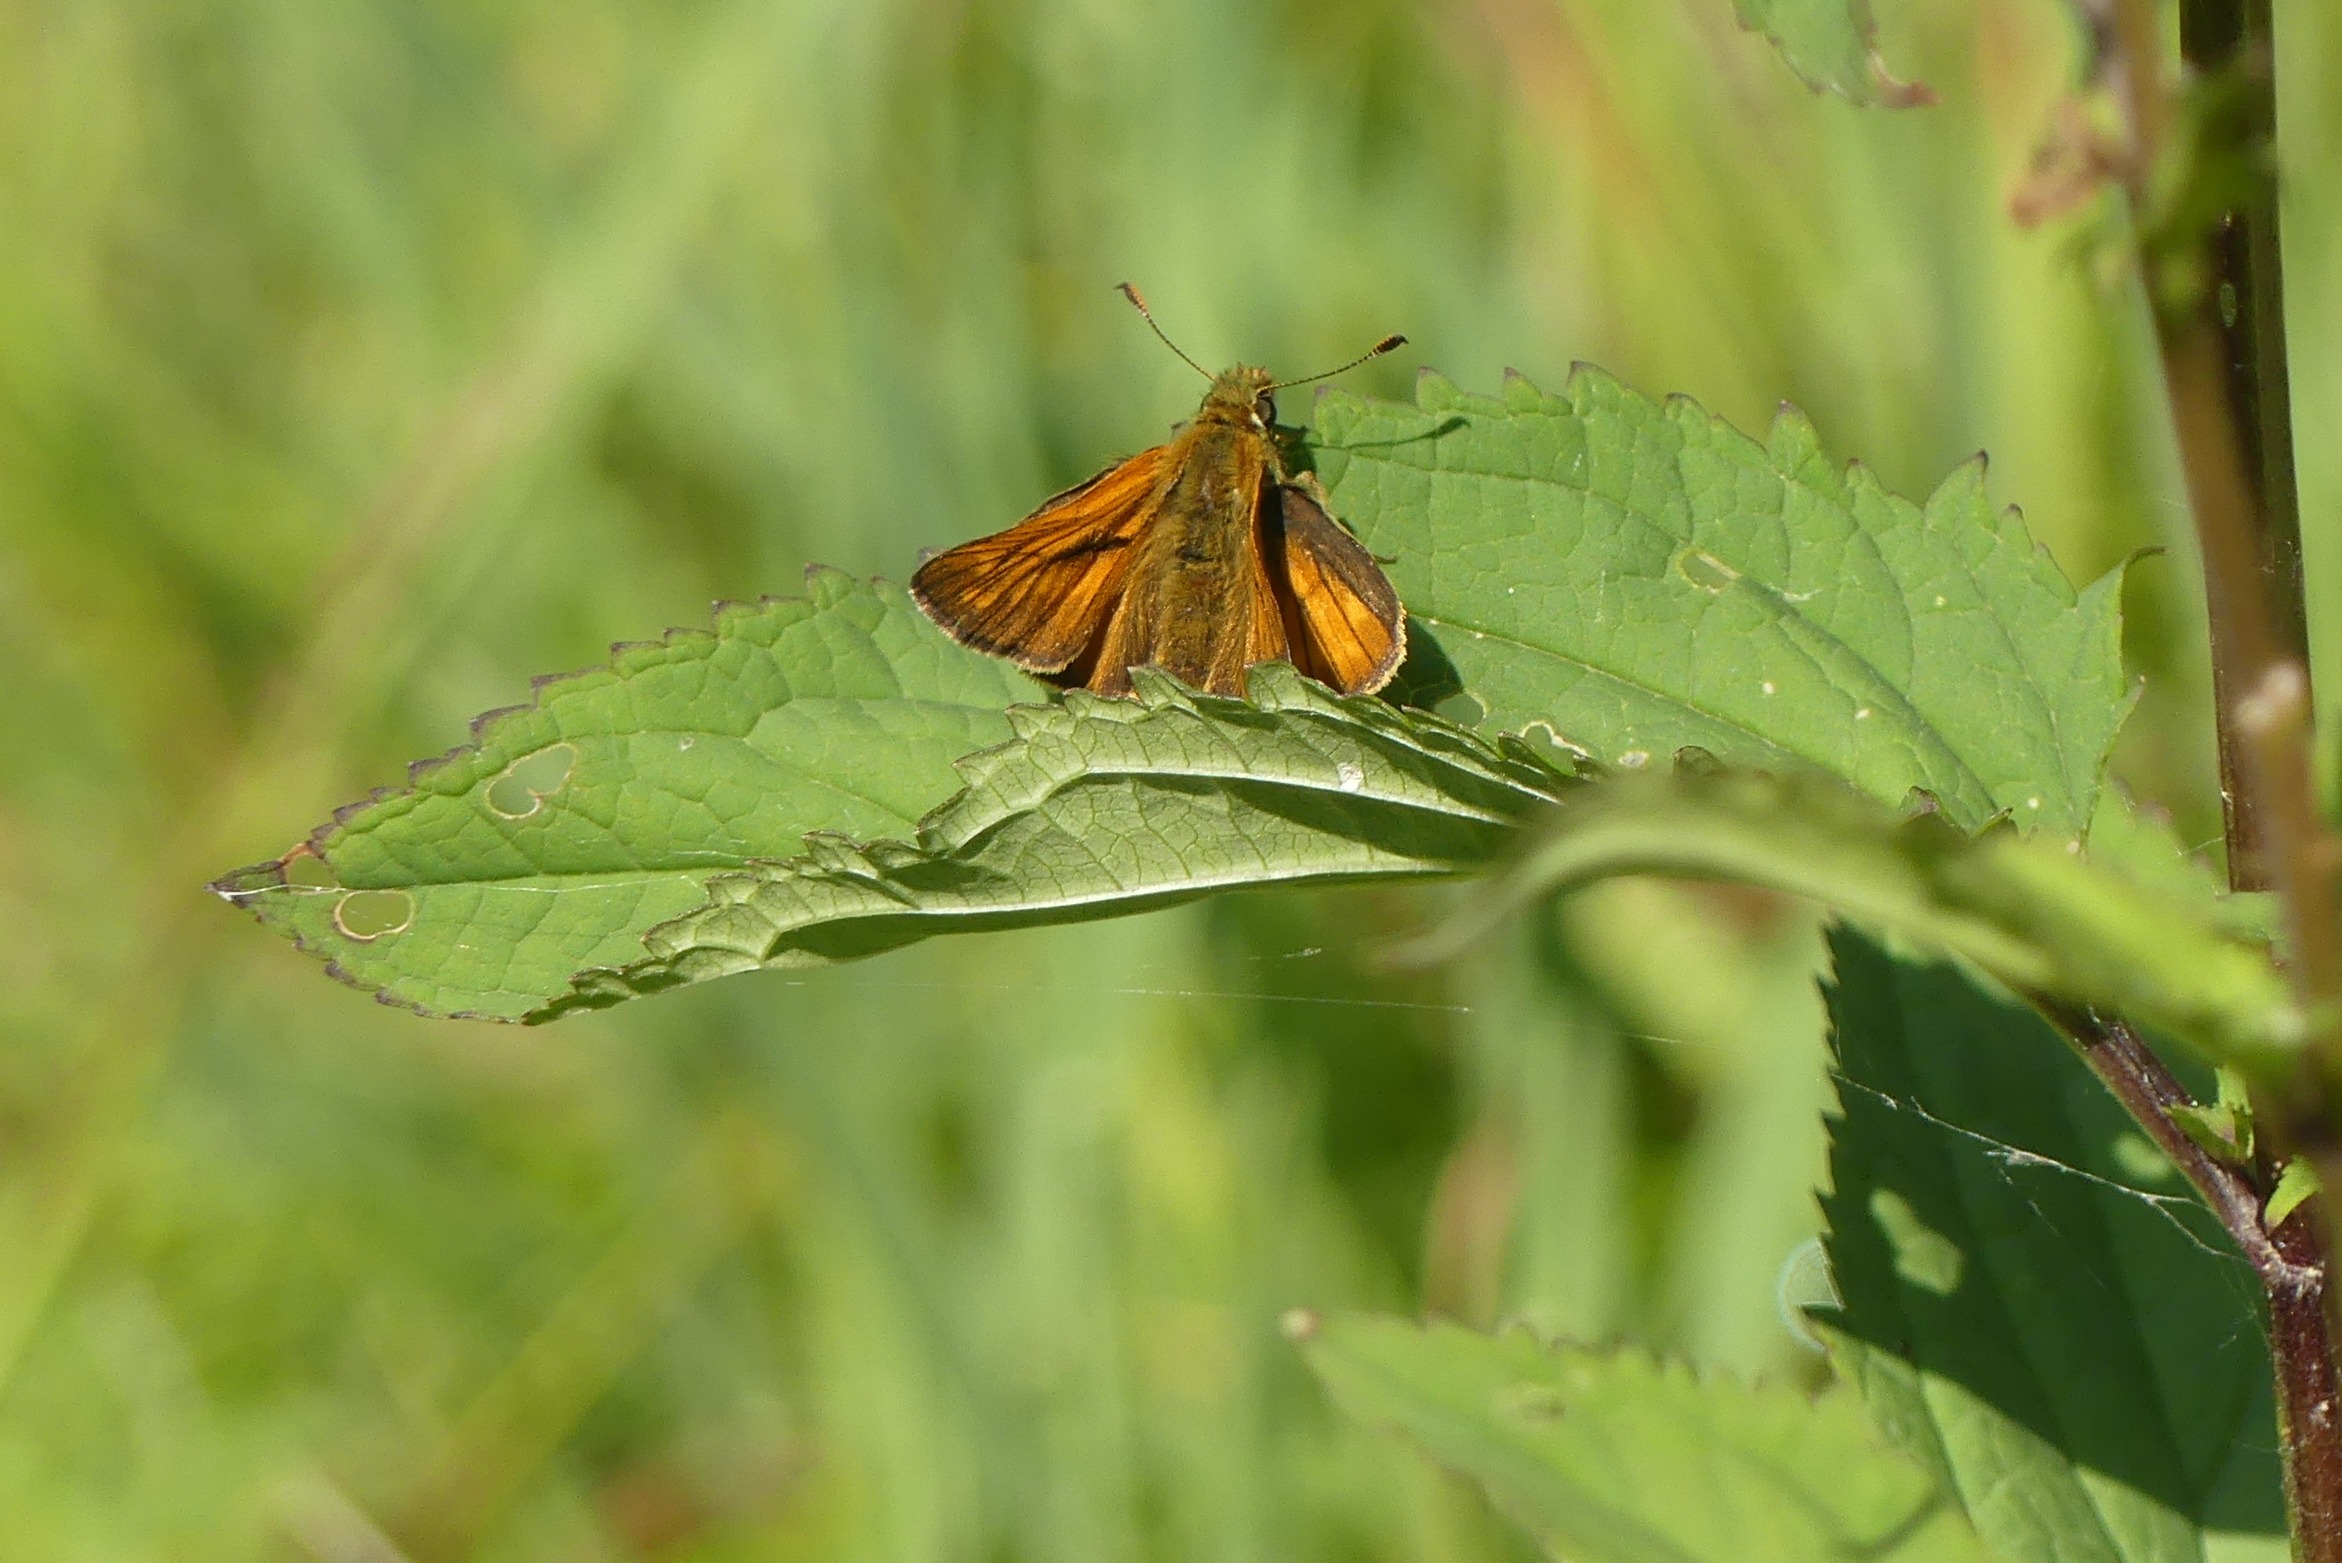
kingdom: Animalia
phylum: Arthropoda
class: Insecta
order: Lepidoptera
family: Hesperiidae
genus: Ochlodes
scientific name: Ochlodes venata
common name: Stor bredpande
